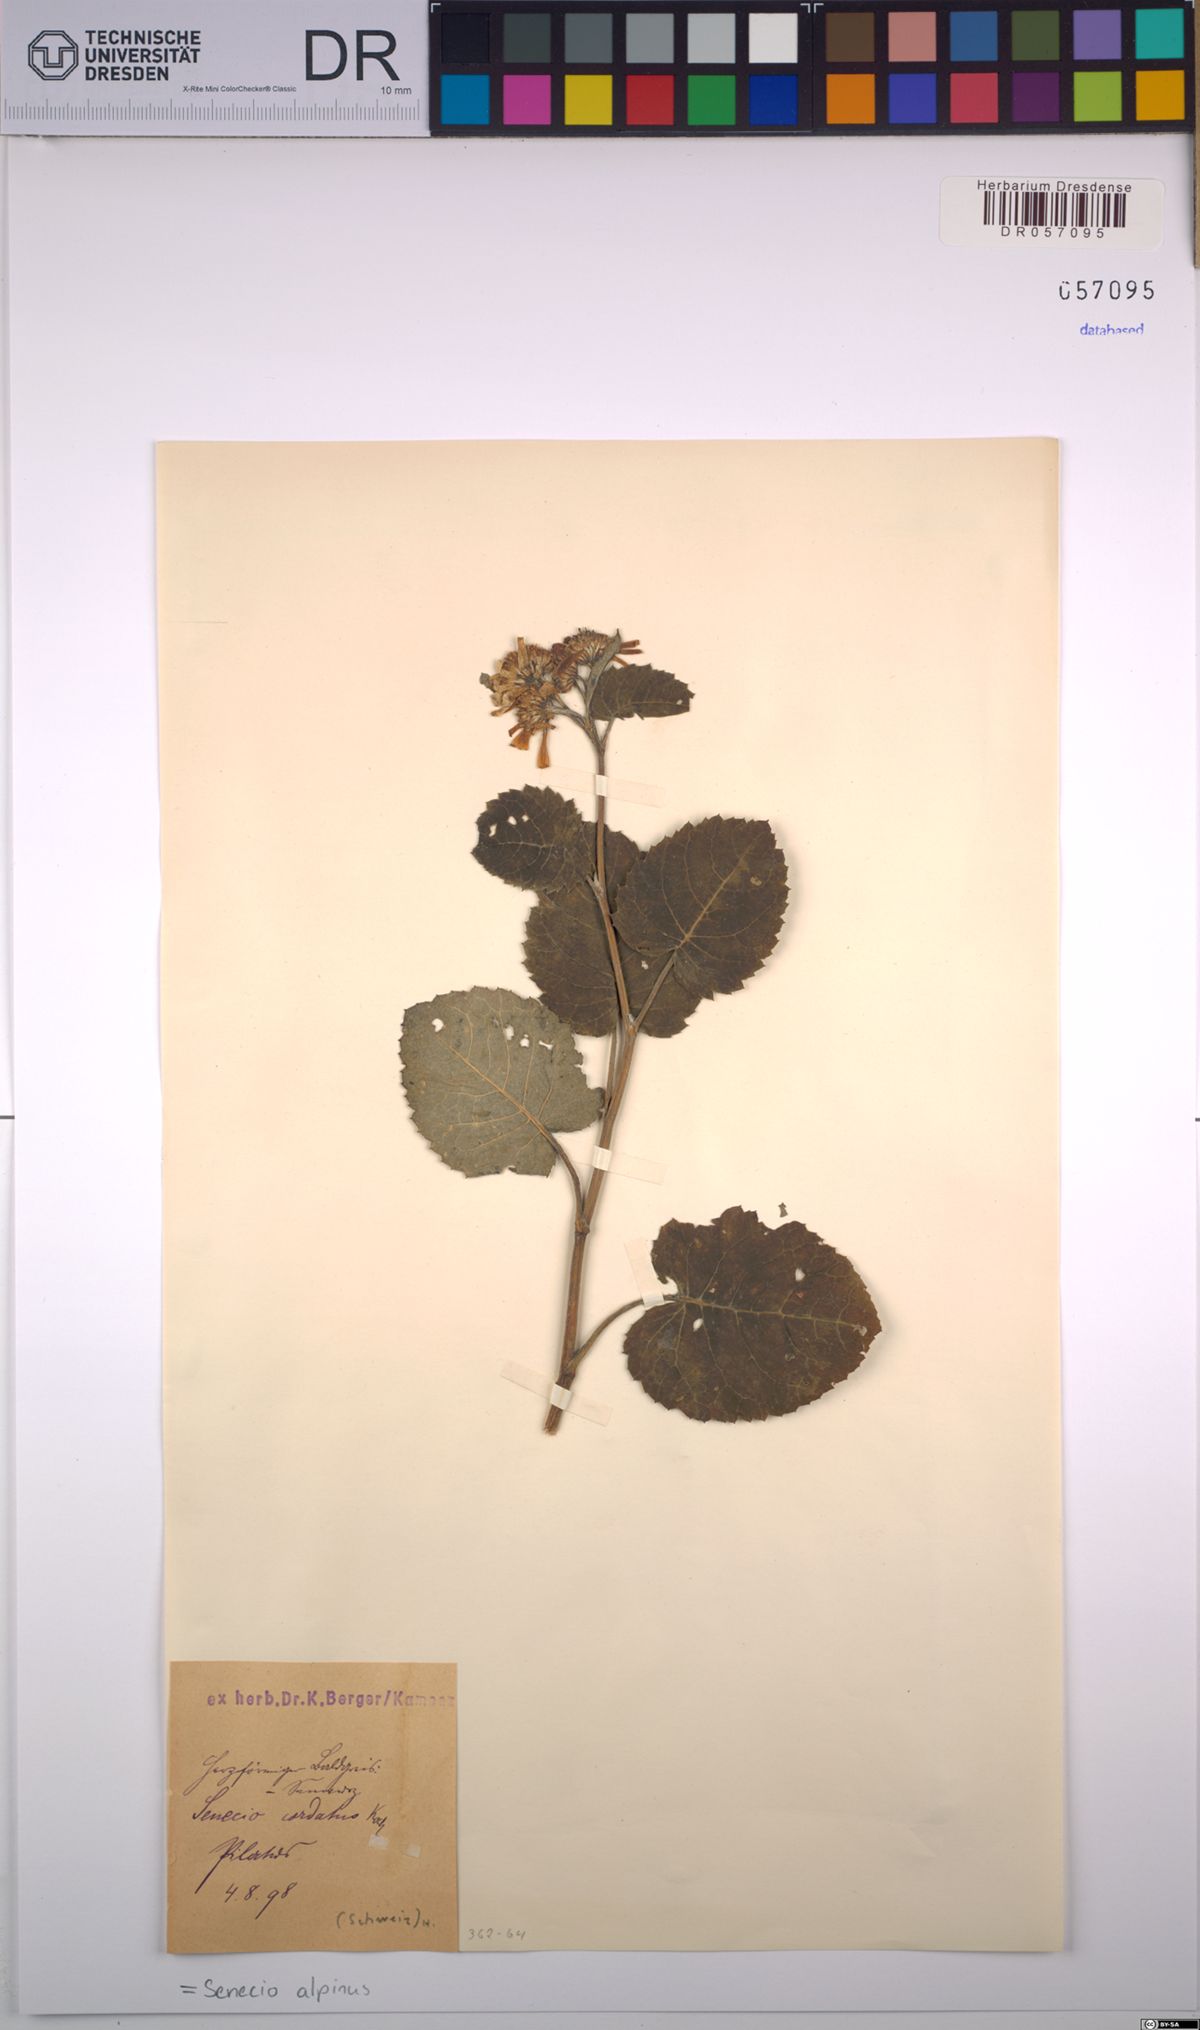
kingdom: Plantae
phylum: Tracheophyta
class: Magnoliopsida
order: Asterales
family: Asteraceae
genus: Jacobaea
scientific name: Jacobaea alpina
